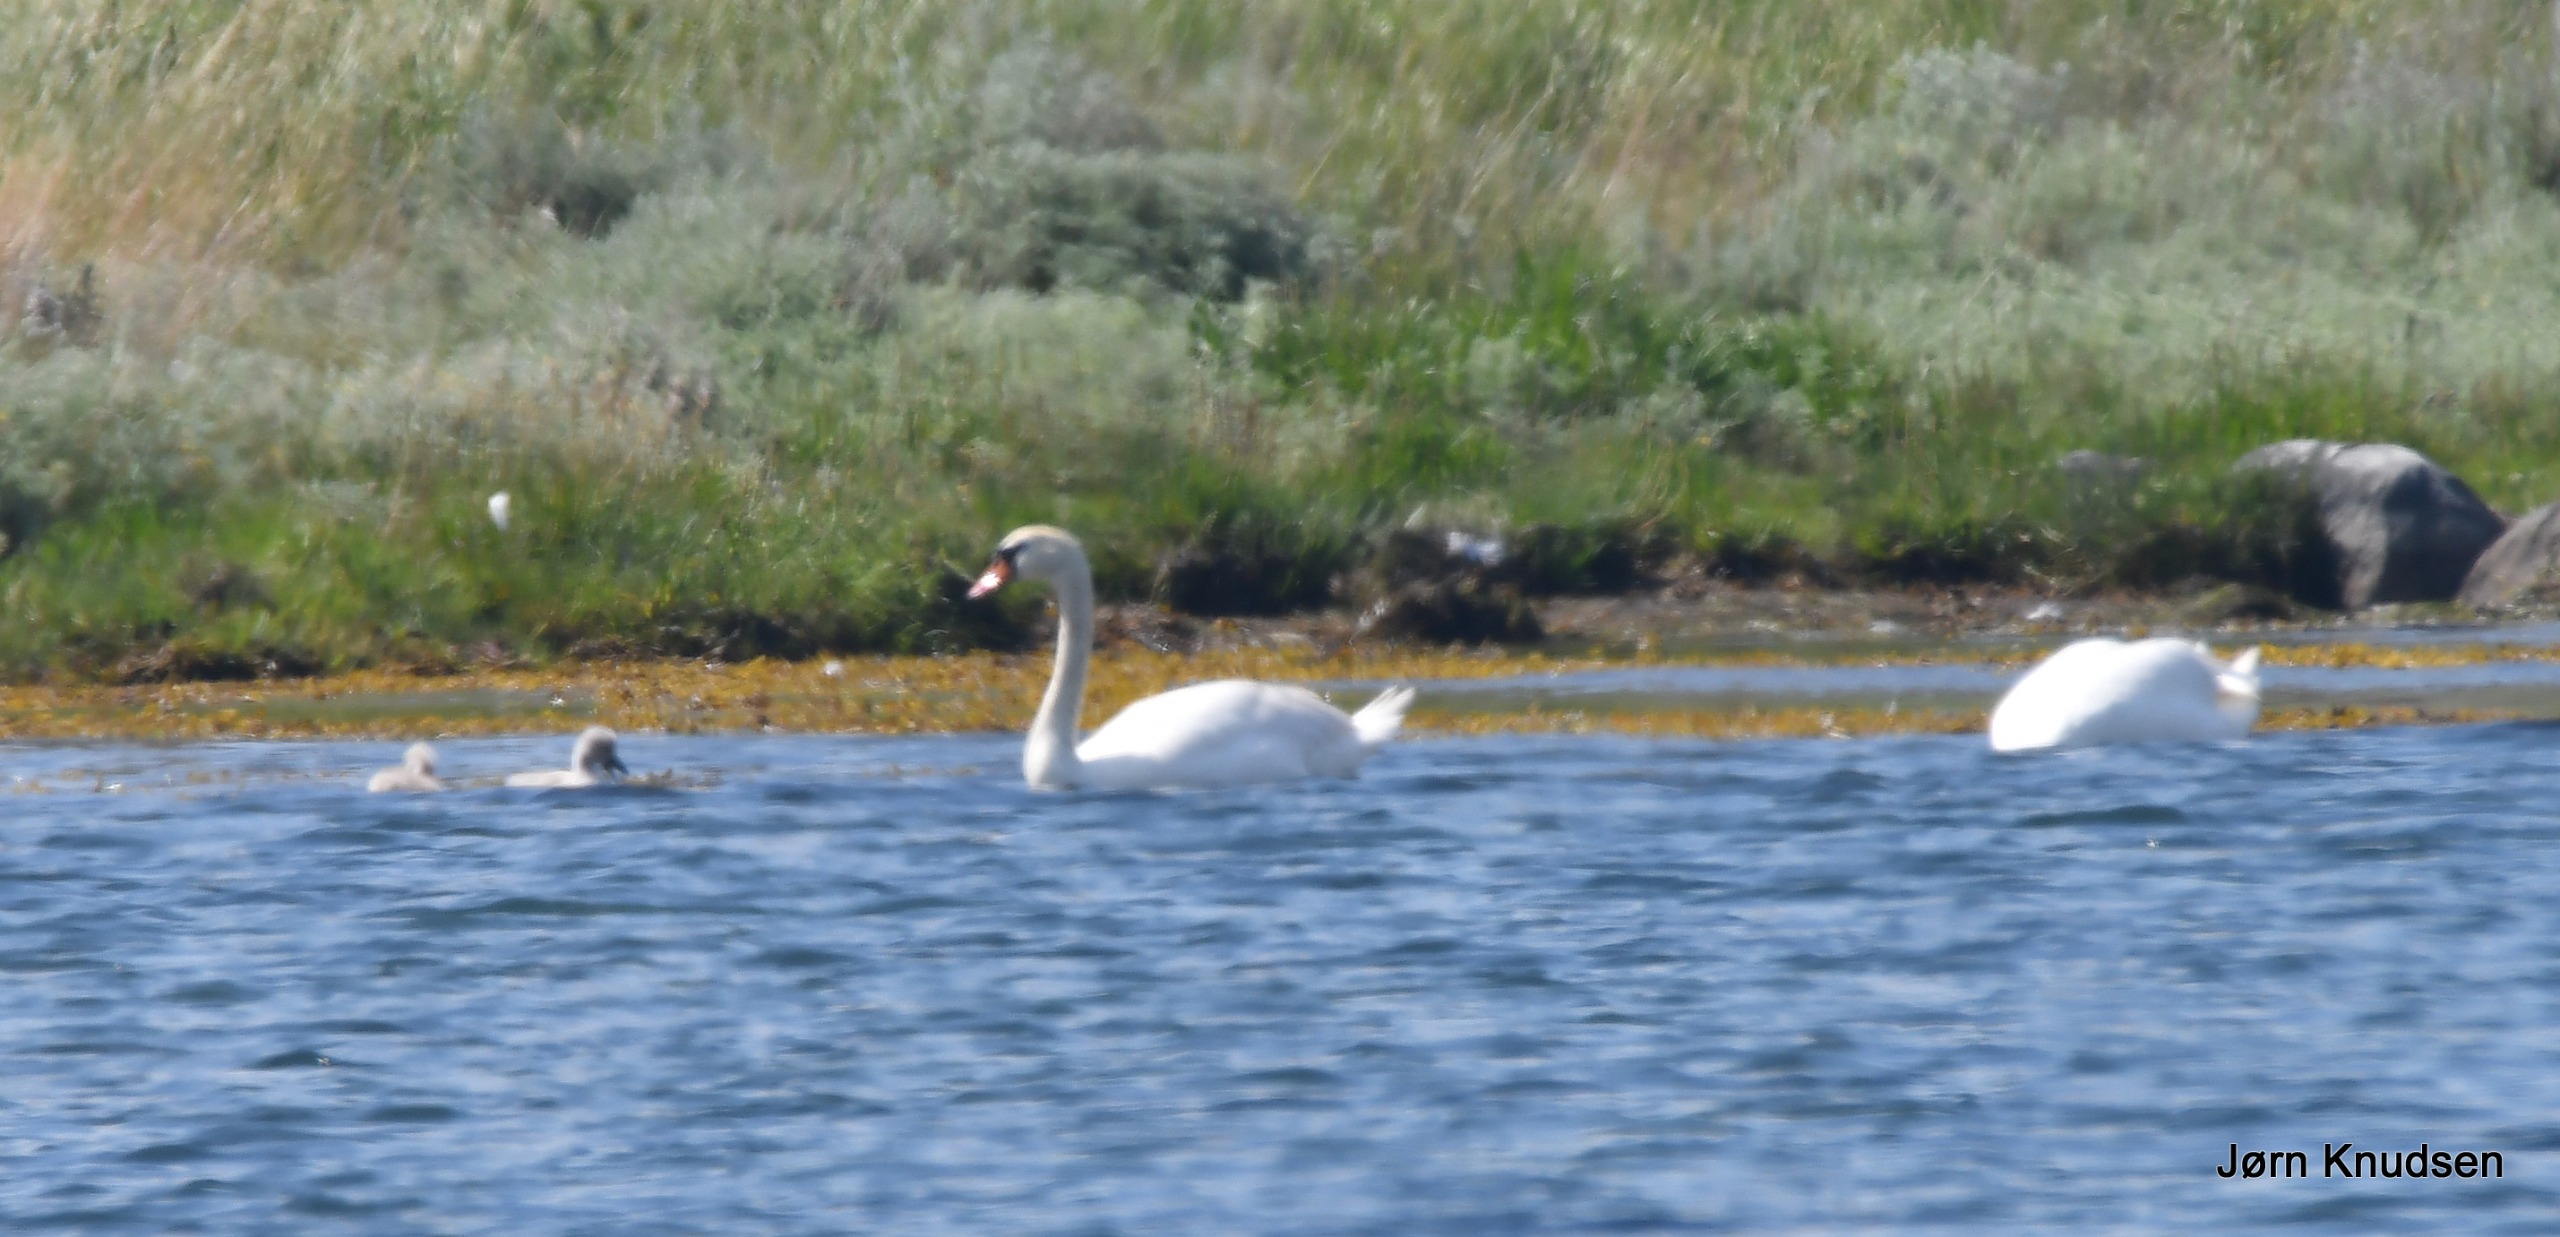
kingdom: Animalia
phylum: Chordata
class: Aves
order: Anseriformes
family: Anatidae
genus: Cygnus
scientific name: Cygnus olor
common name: Knopsvane
